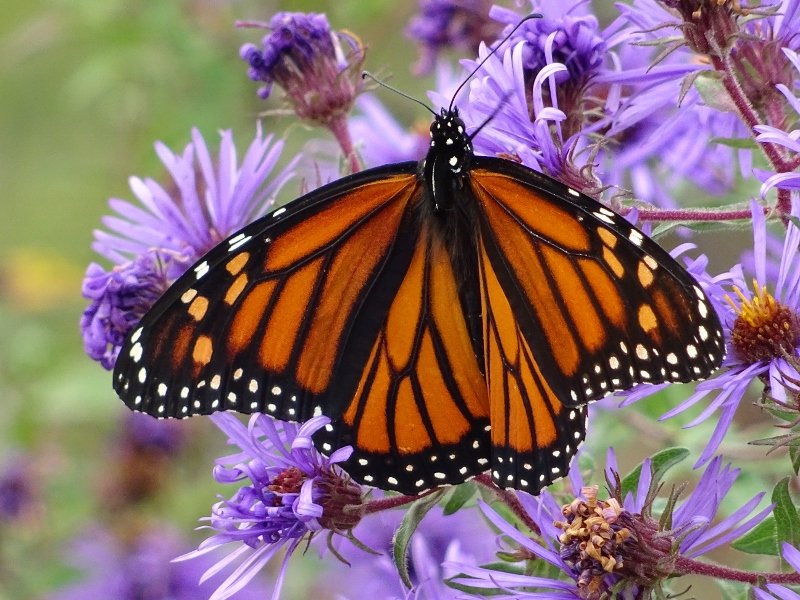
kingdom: Animalia
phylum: Arthropoda
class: Insecta
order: Lepidoptera
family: Nymphalidae
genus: Danaus
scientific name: Danaus plexippus
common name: Monarch
